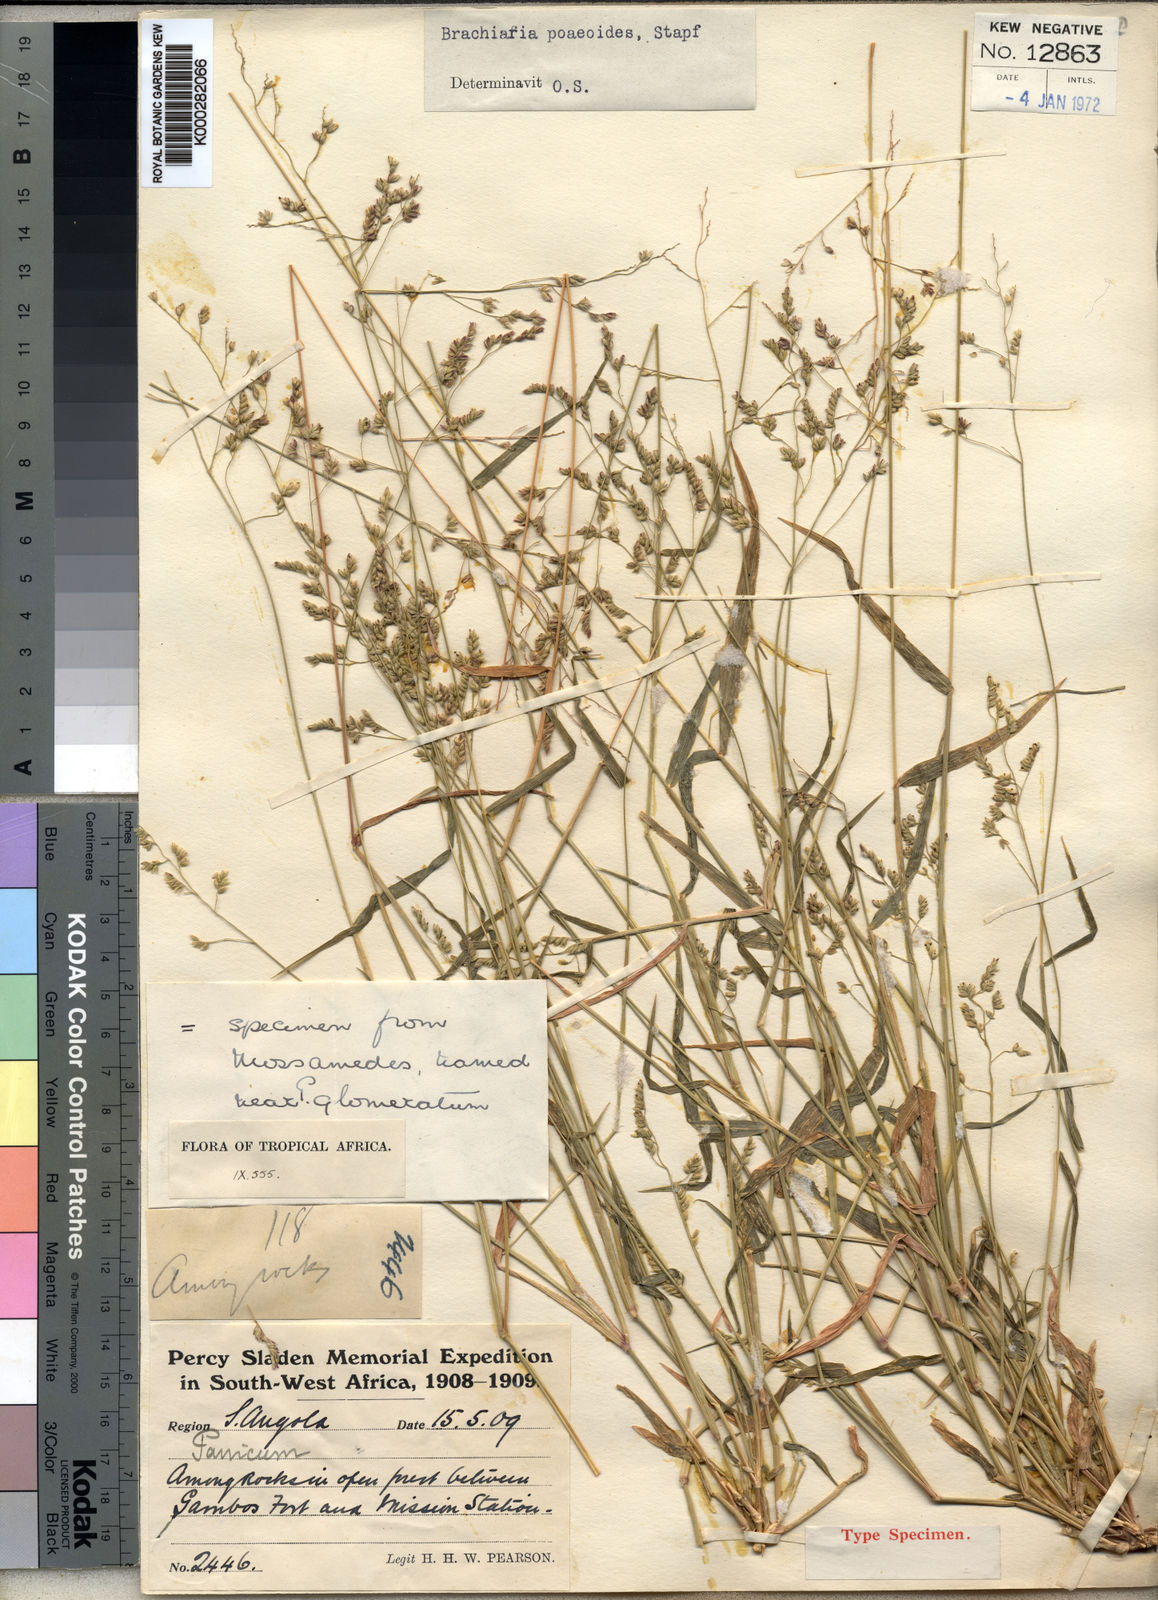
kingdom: Plantae
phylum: Tracheophyta
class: Liliopsida
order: Poales
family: Poaceae
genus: Moorochloa
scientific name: Moorochloa malacodes
